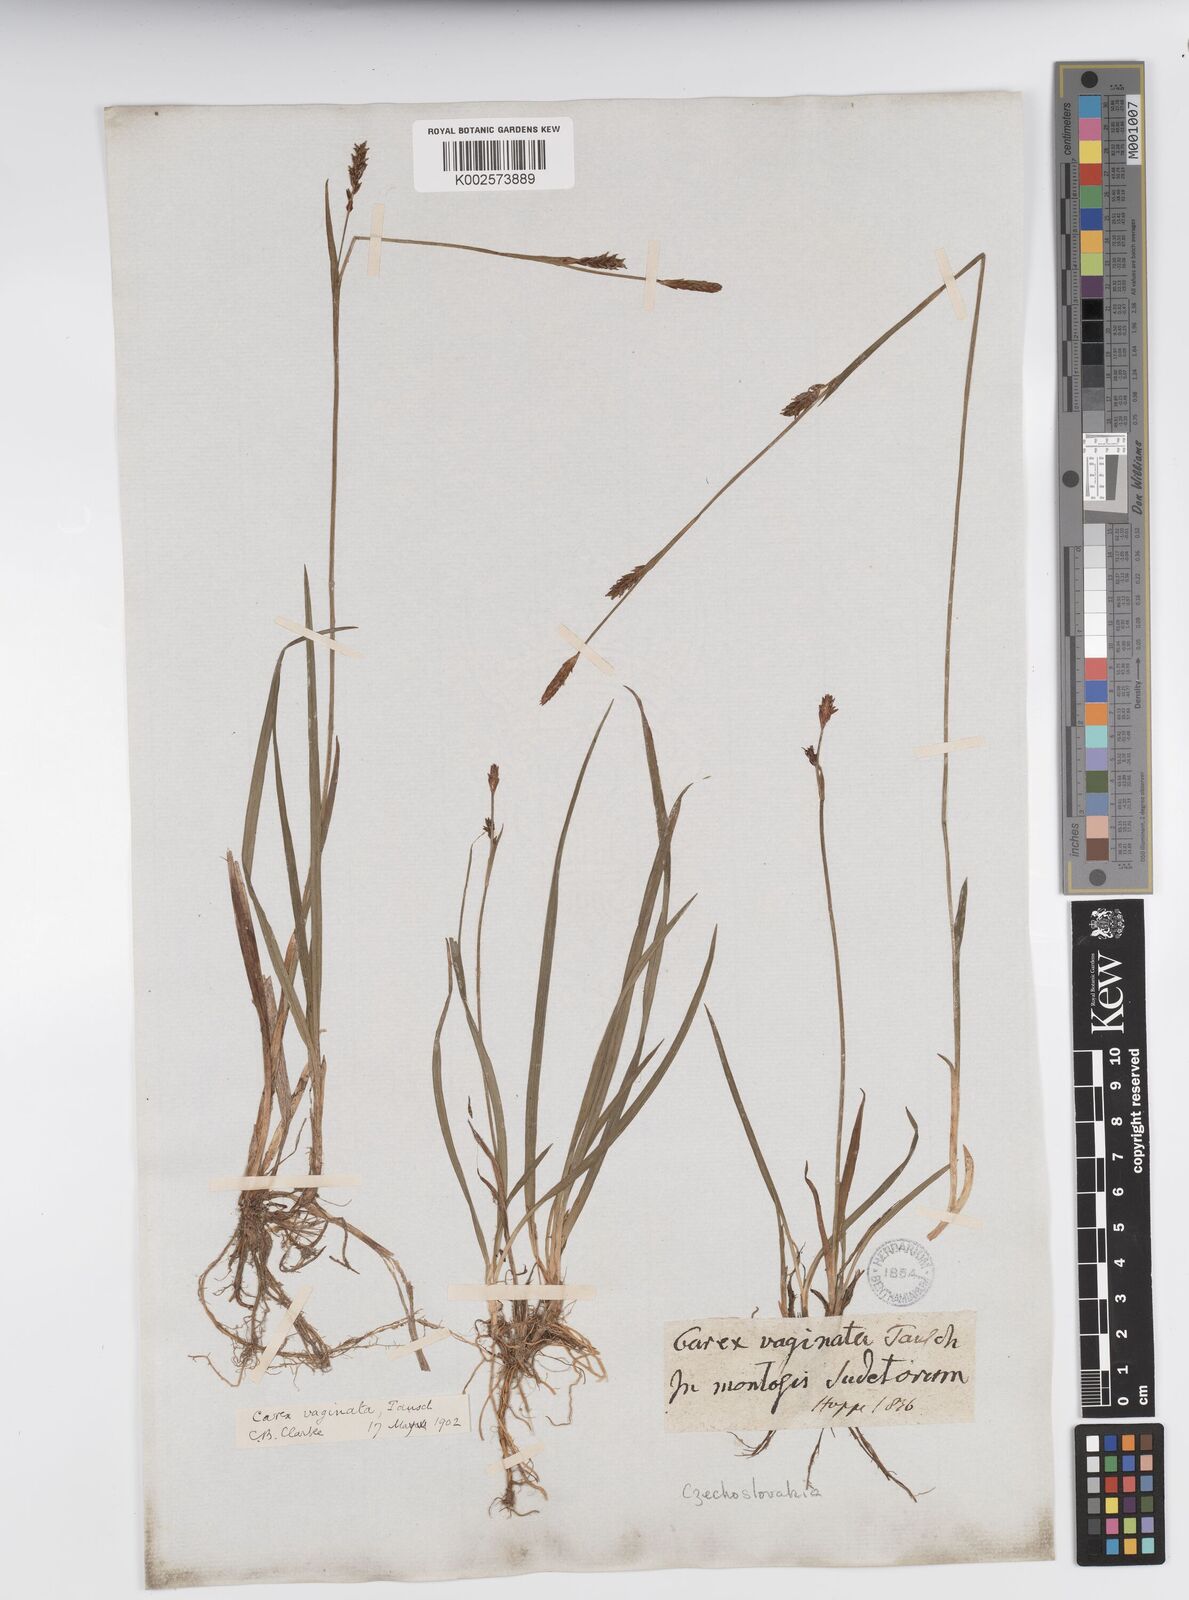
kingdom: Plantae
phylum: Tracheophyta
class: Liliopsida
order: Poales
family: Cyperaceae
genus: Carex
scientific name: Carex vaginata
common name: Sheathed sedge
